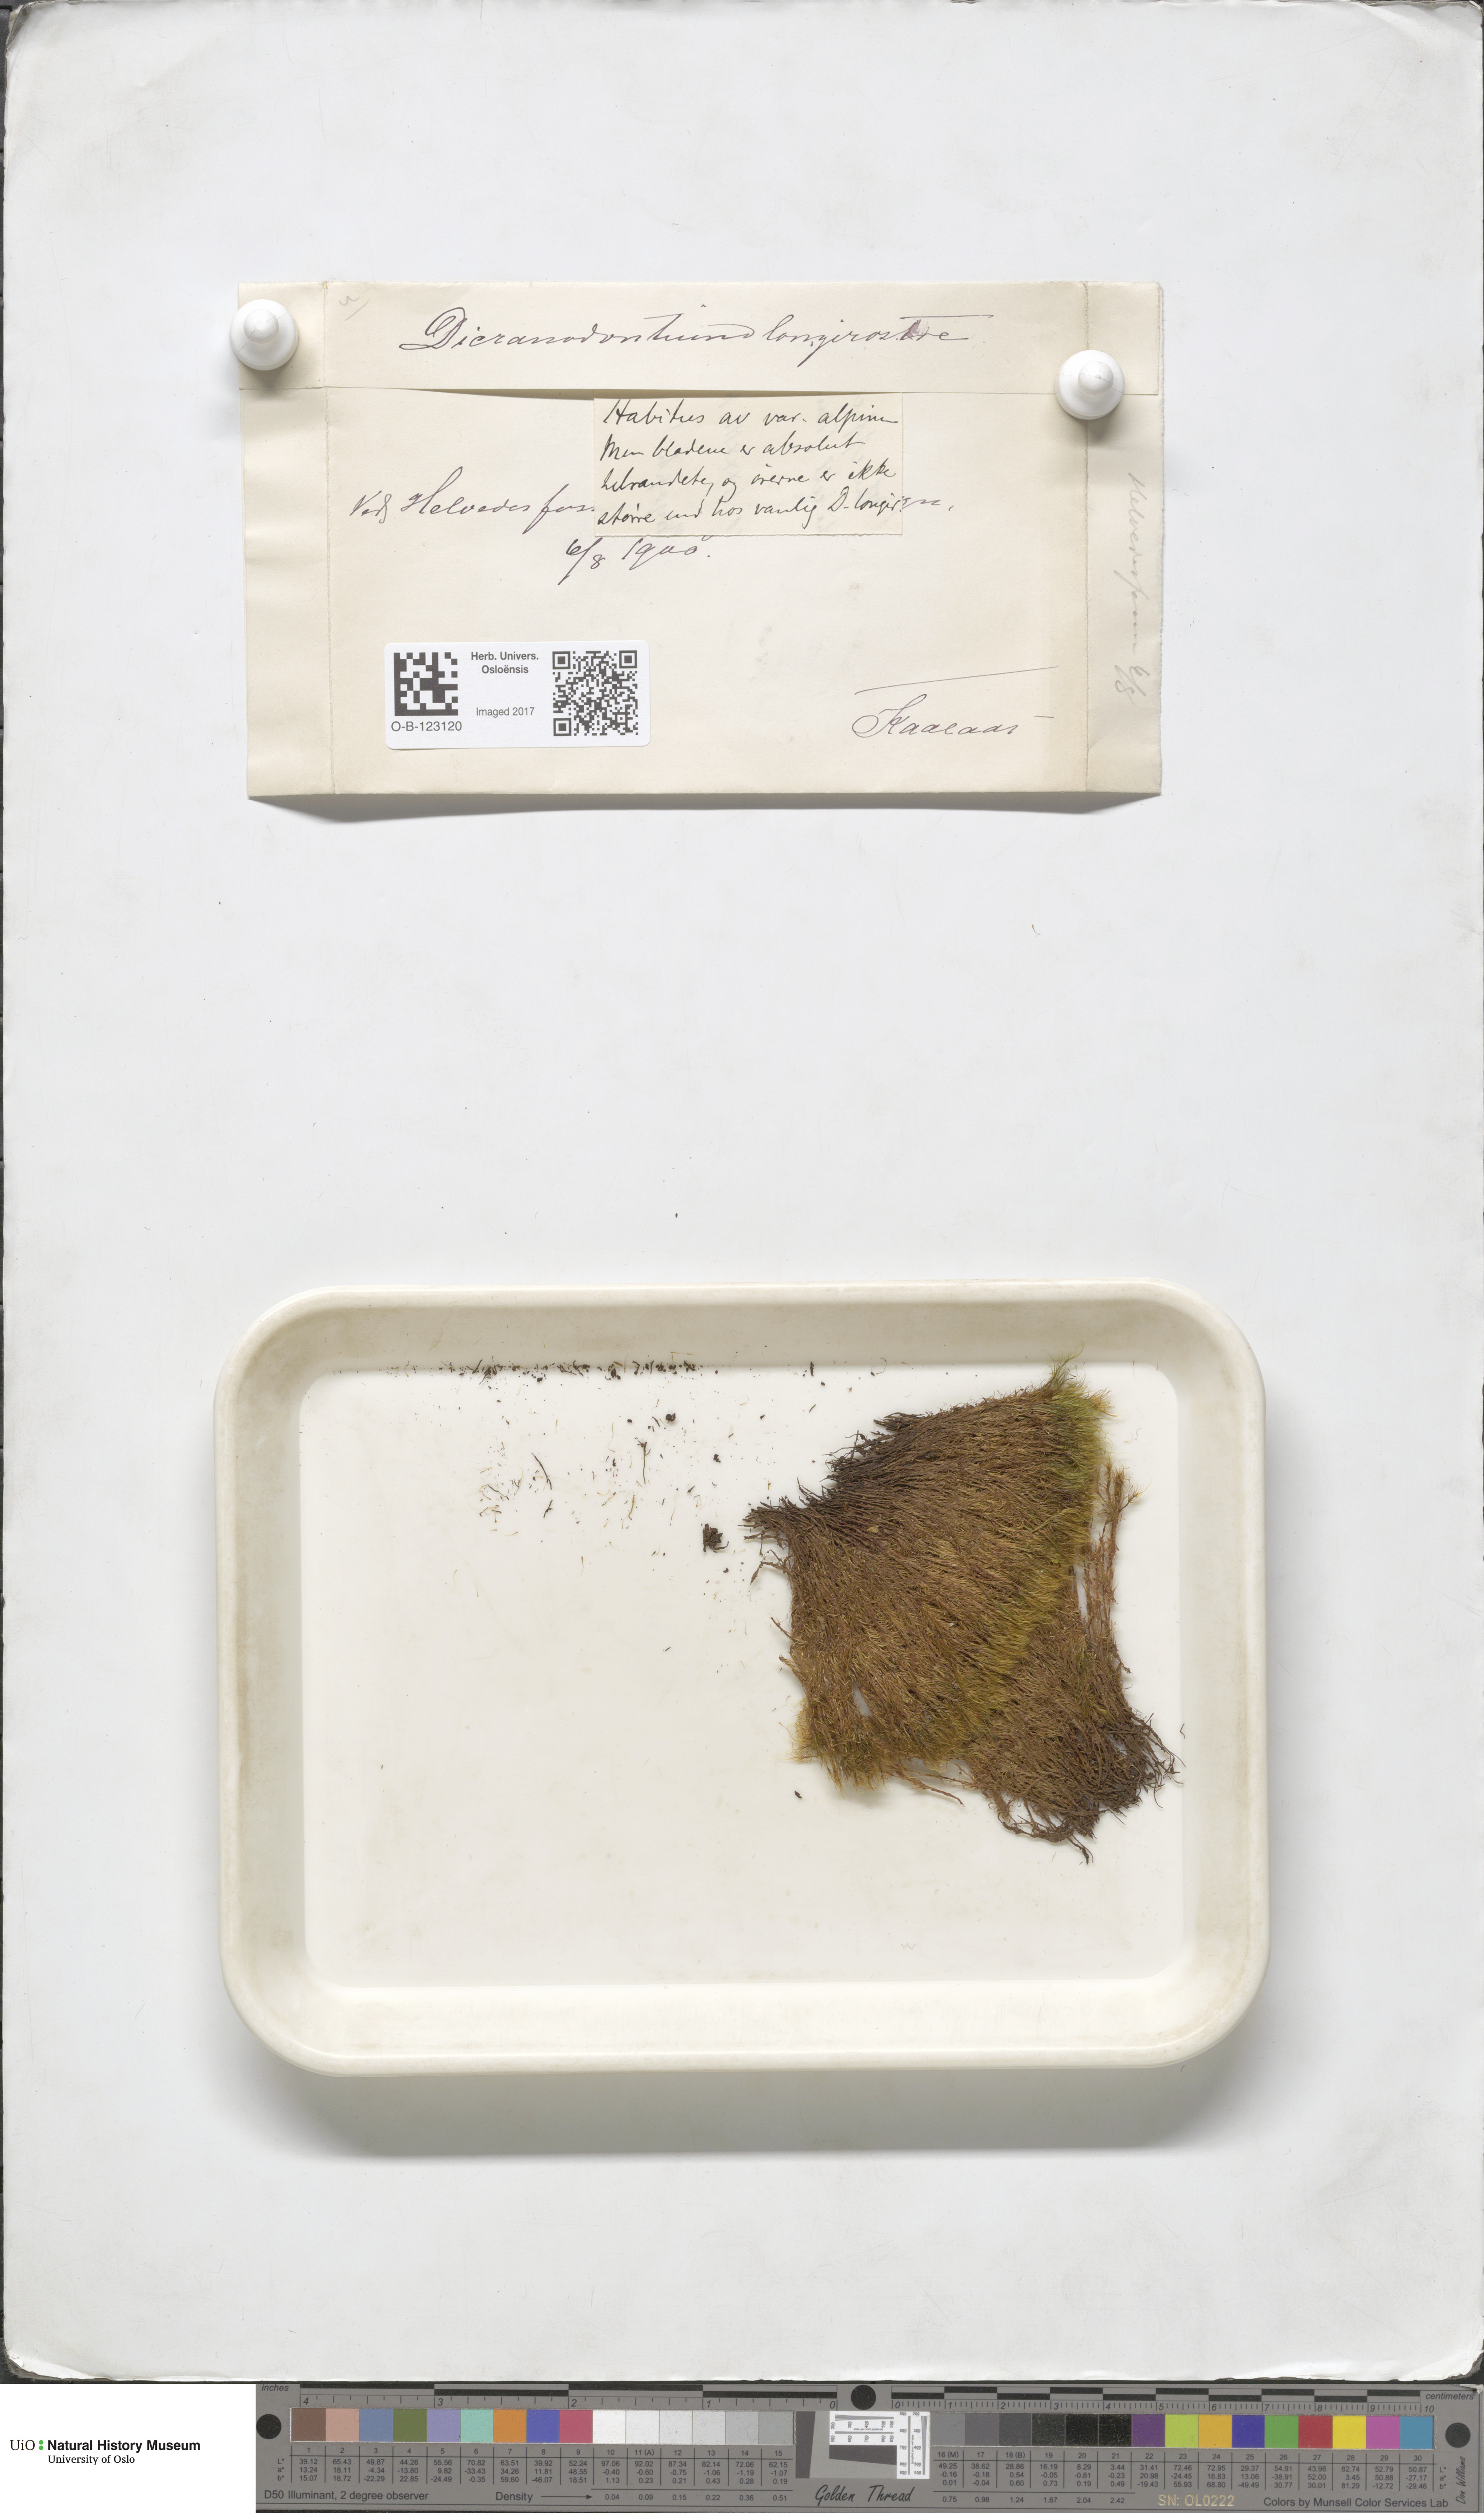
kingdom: Plantae
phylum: Bryophyta
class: Bryopsida
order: Dicranales
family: Leucobryaceae
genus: Dicranodontium
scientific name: Dicranodontium denudatum
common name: Beaked bow moss
